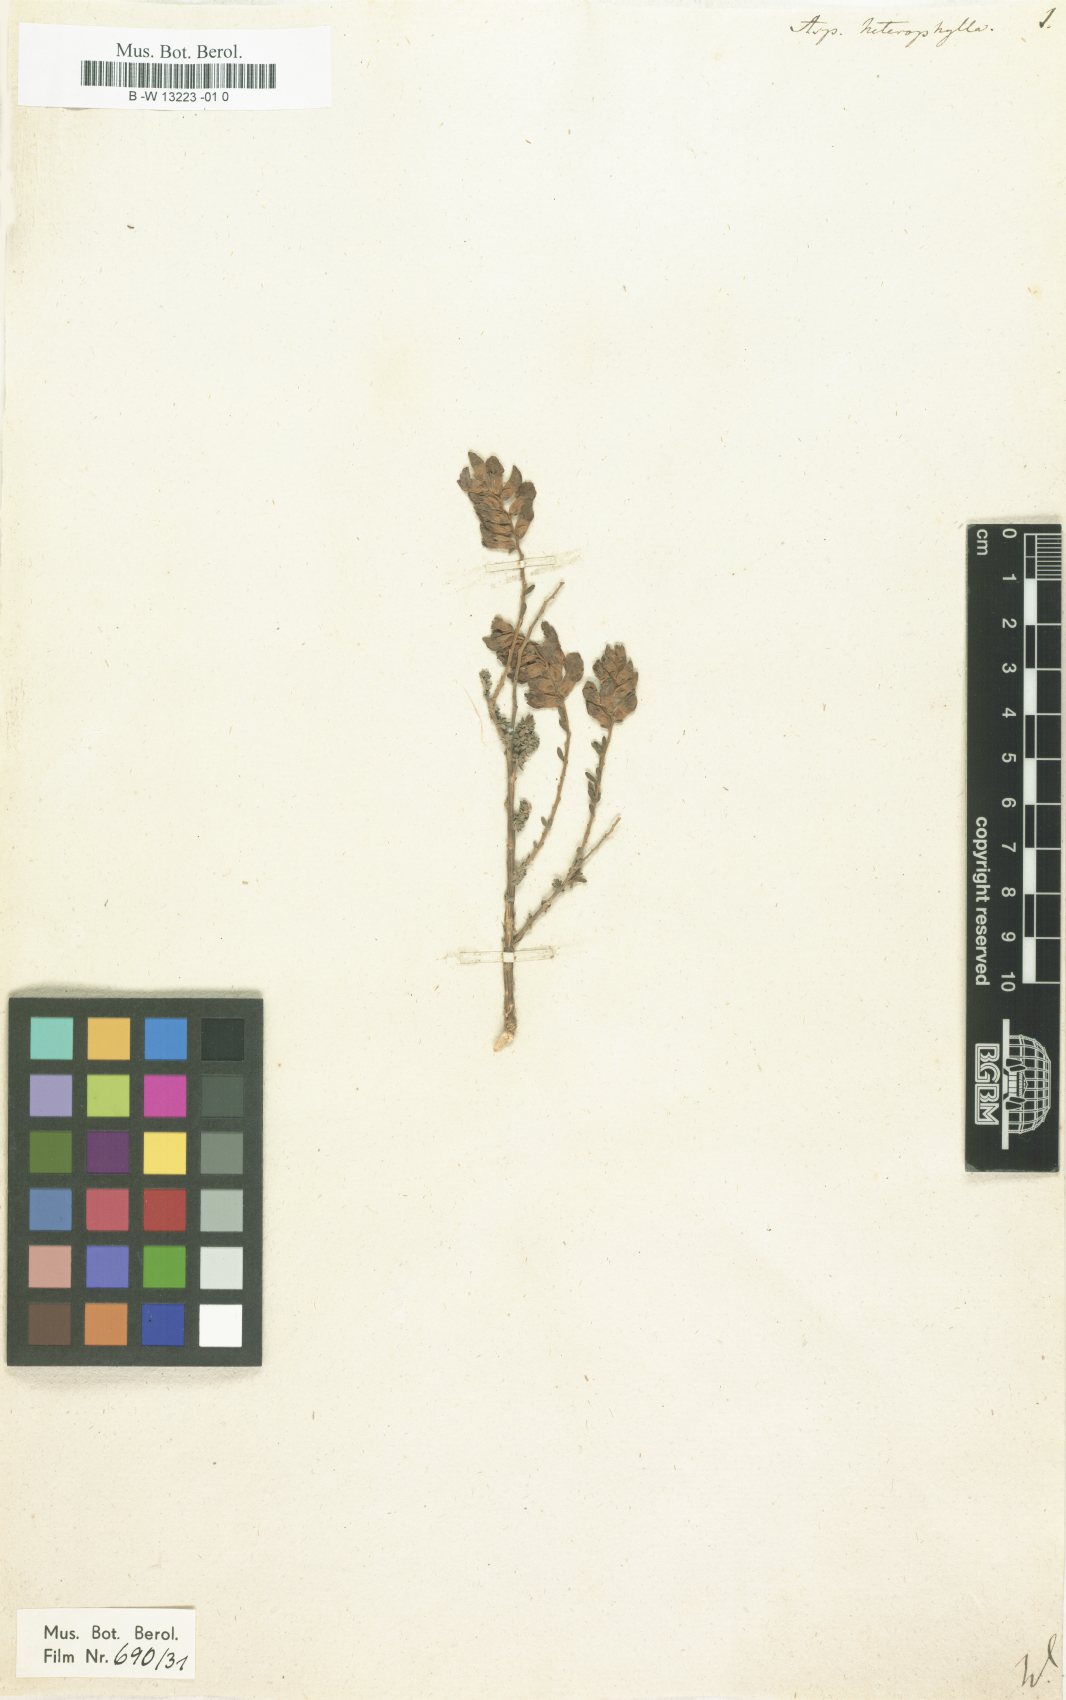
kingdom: Plantae
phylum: Tracheophyta
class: Magnoliopsida
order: Fabales
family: Fabaceae
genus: Aspalathus
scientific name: Aspalathus heterophylla
